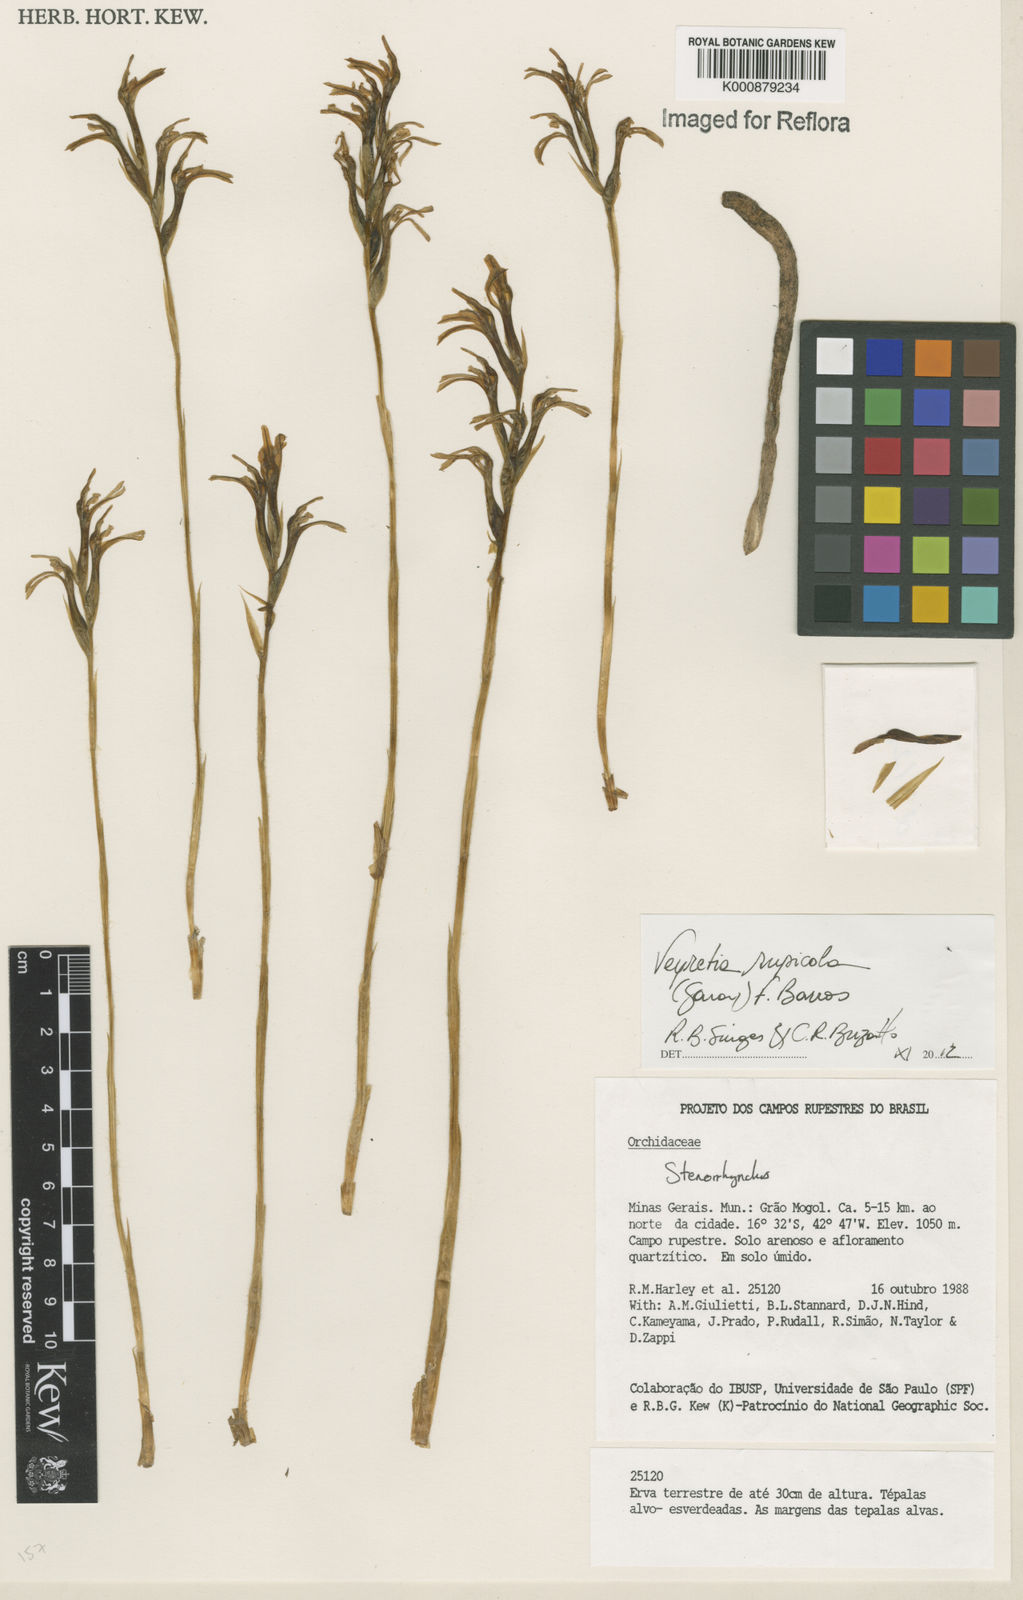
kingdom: Plantae
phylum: Tracheophyta
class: Liliopsida
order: Asparagales
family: Orchidaceae
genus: Veyretia
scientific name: Veyretia rupicola
